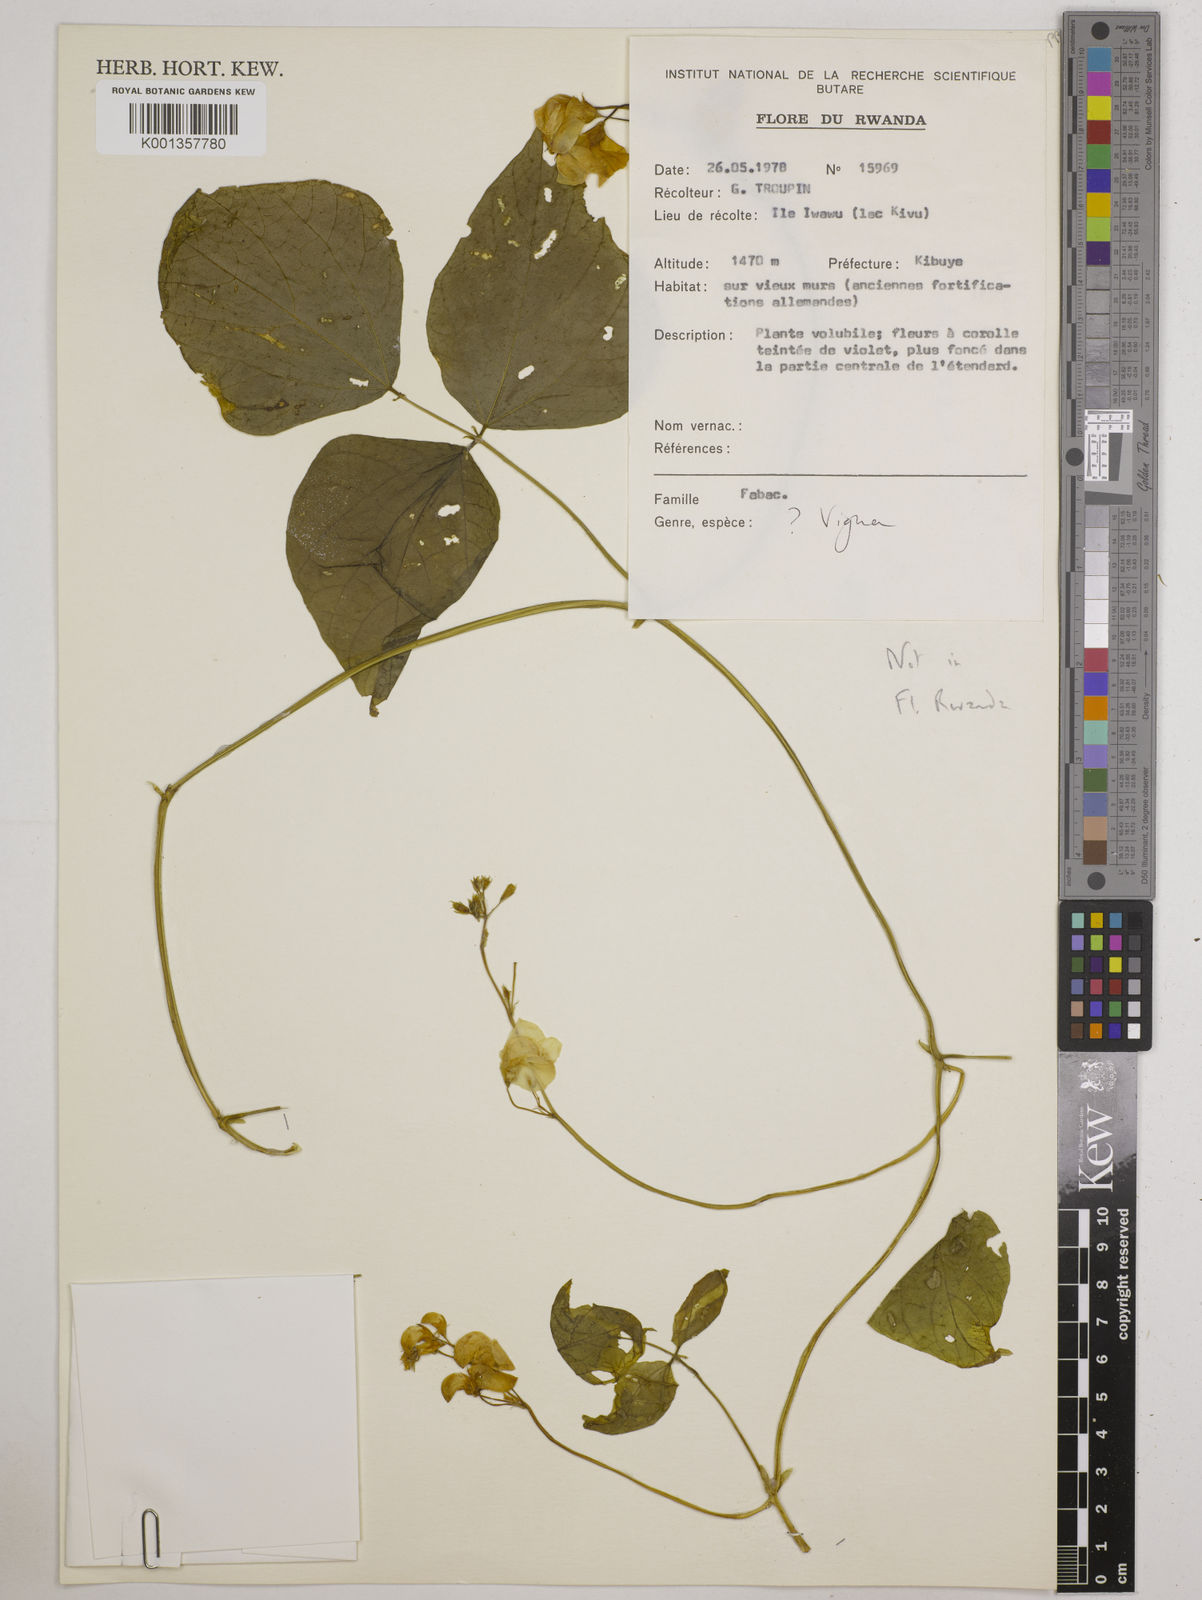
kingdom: Plantae
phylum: Tracheophyta
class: Magnoliopsida
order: Fabales
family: Fabaceae
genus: Vigna
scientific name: Vigna
